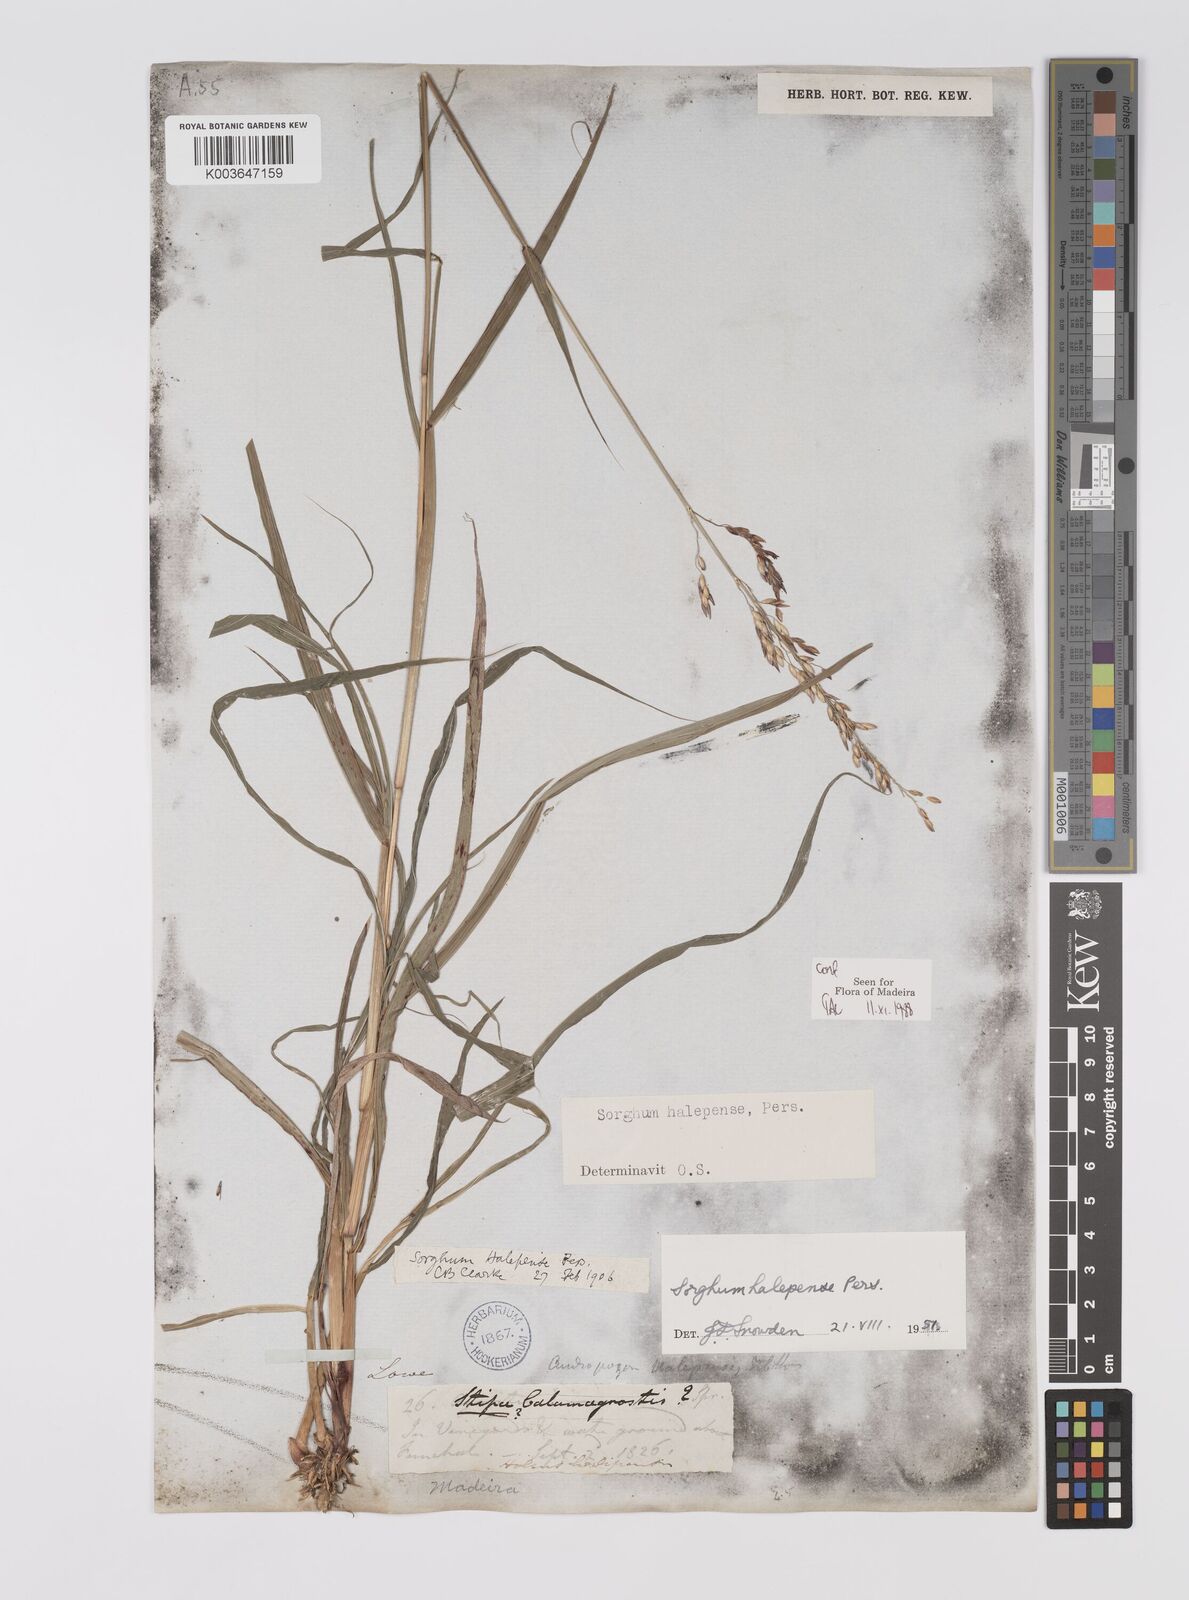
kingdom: Plantae
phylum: Tracheophyta
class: Liliopsida
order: Poales
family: Poaceae
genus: Sorghum
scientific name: Sorghum halepense
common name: Johnson-grass
